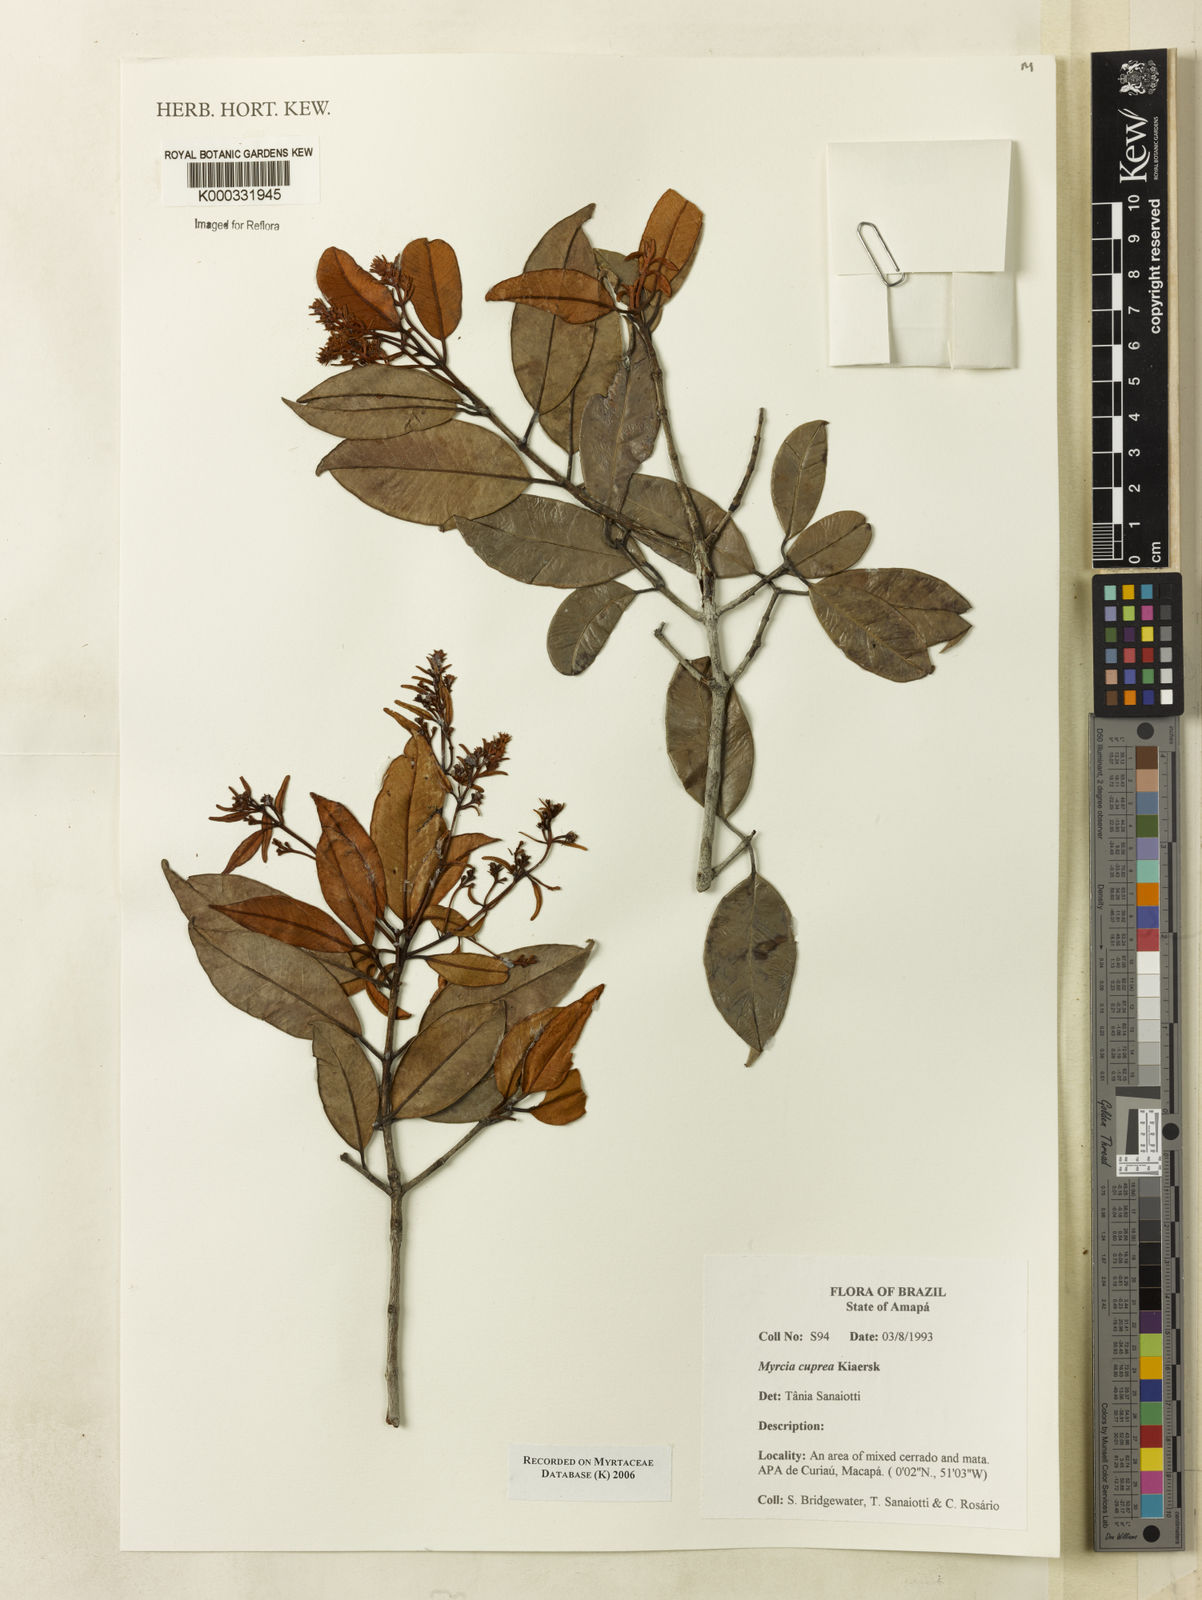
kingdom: Plantae
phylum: Tracheophyta
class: Magnoliopsida
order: Myrtales
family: Myrtaceae
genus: Myrcia
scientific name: Myrcia cuprea
